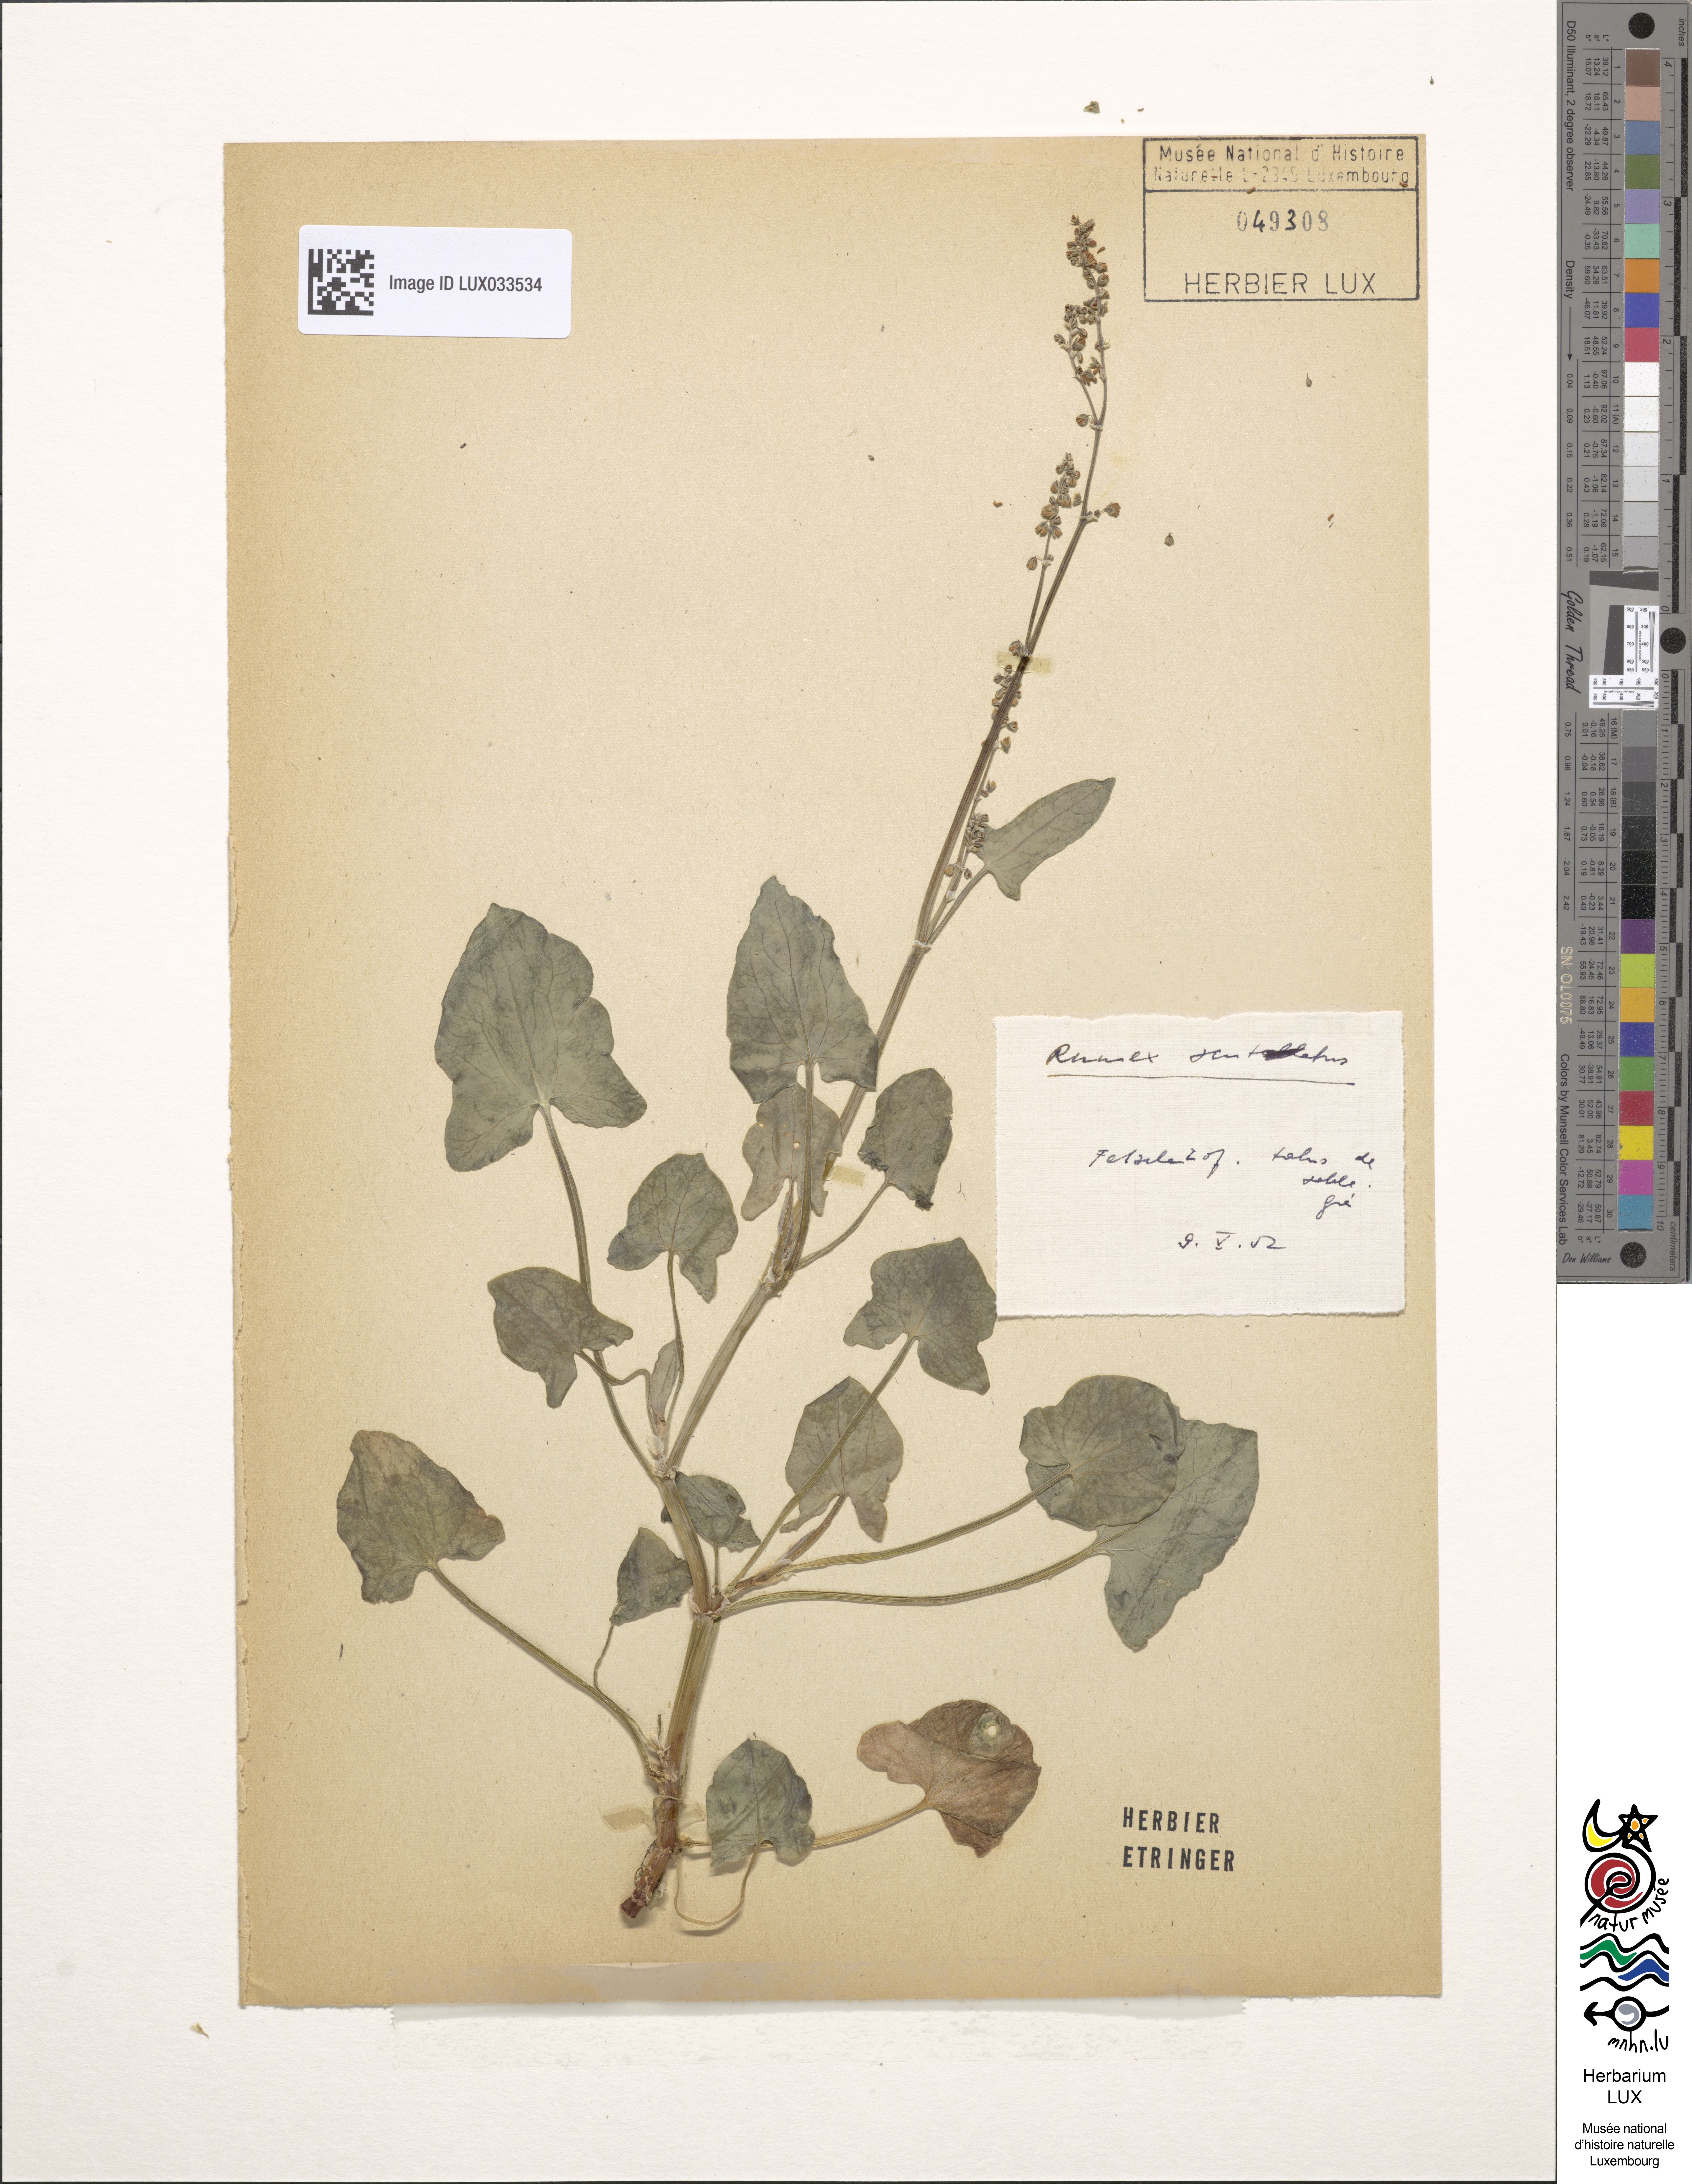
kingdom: Plantae
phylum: Tracheophyta
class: Magnoliopsida
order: Caryophyllales
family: Polygonaceae
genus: Rumex
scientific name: Rumex scutatus
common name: French sorrel
